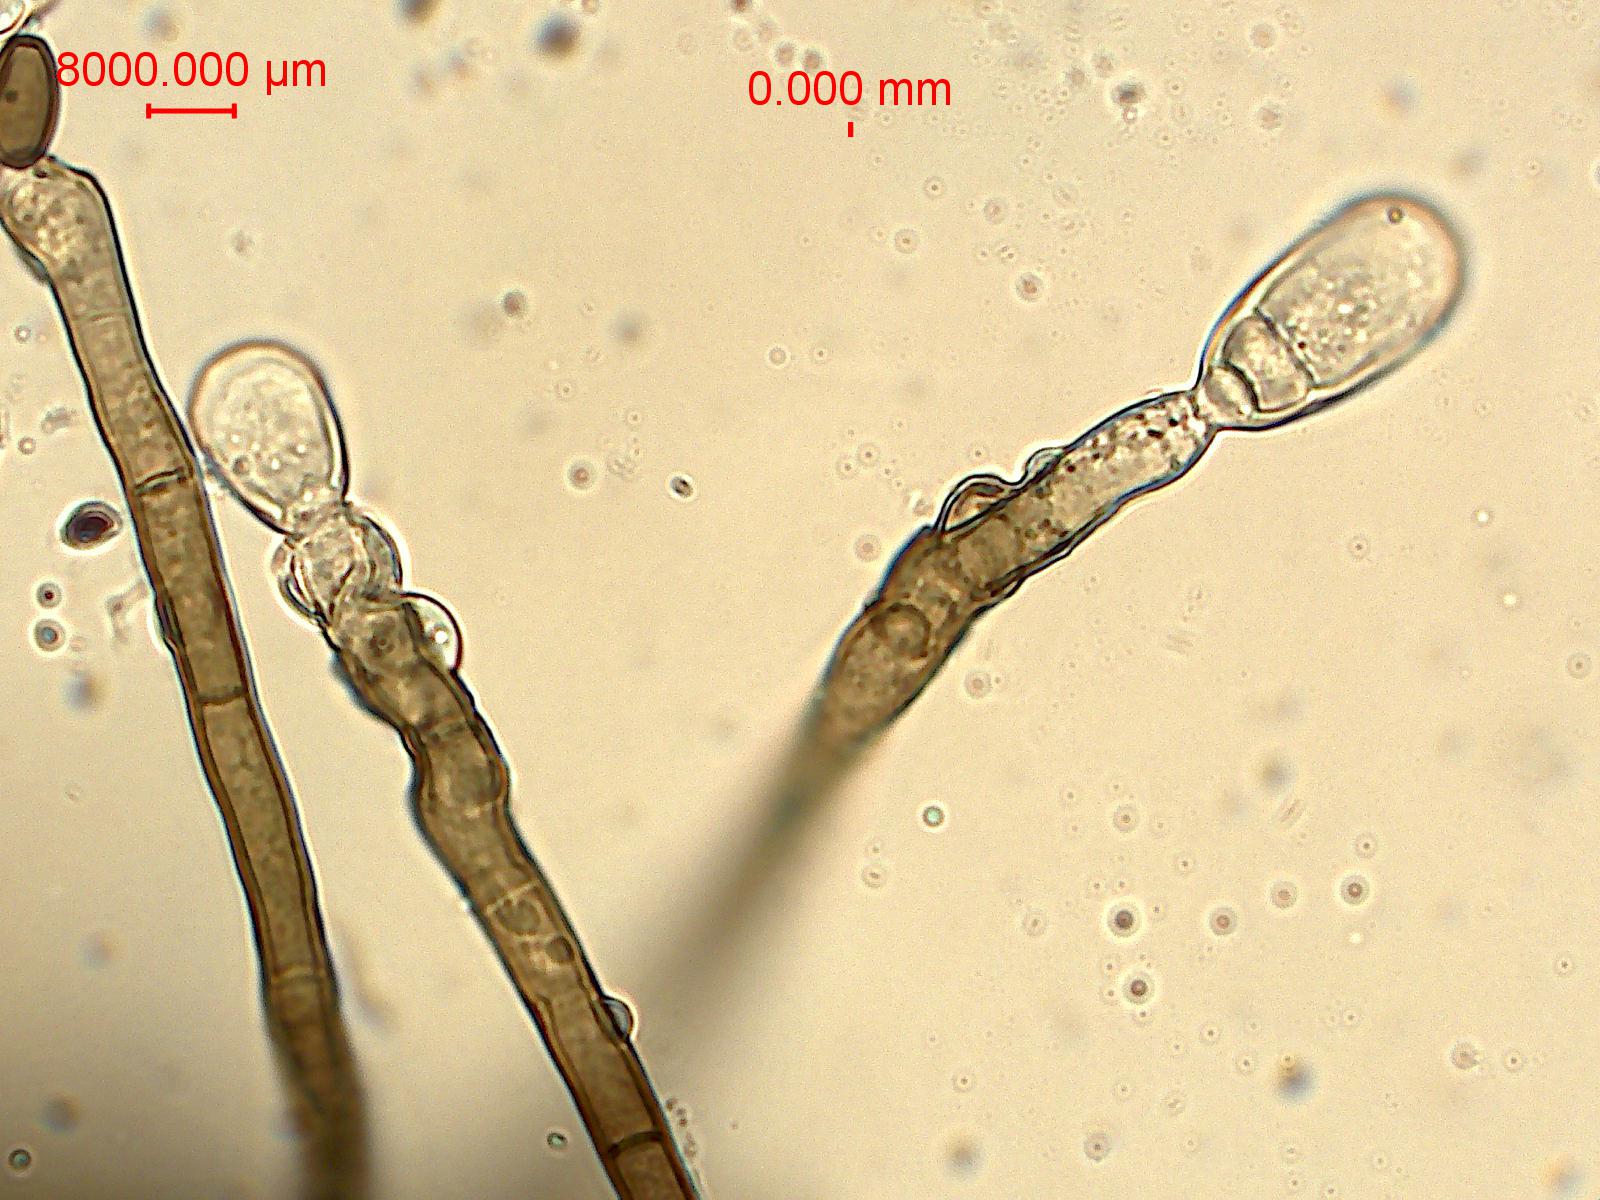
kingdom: Fungi
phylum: Ascomycota
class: Dothideomycetes
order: Pleosporales
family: Pleosporaceae
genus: Pyrenophora
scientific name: Pyrenophora biseptata
